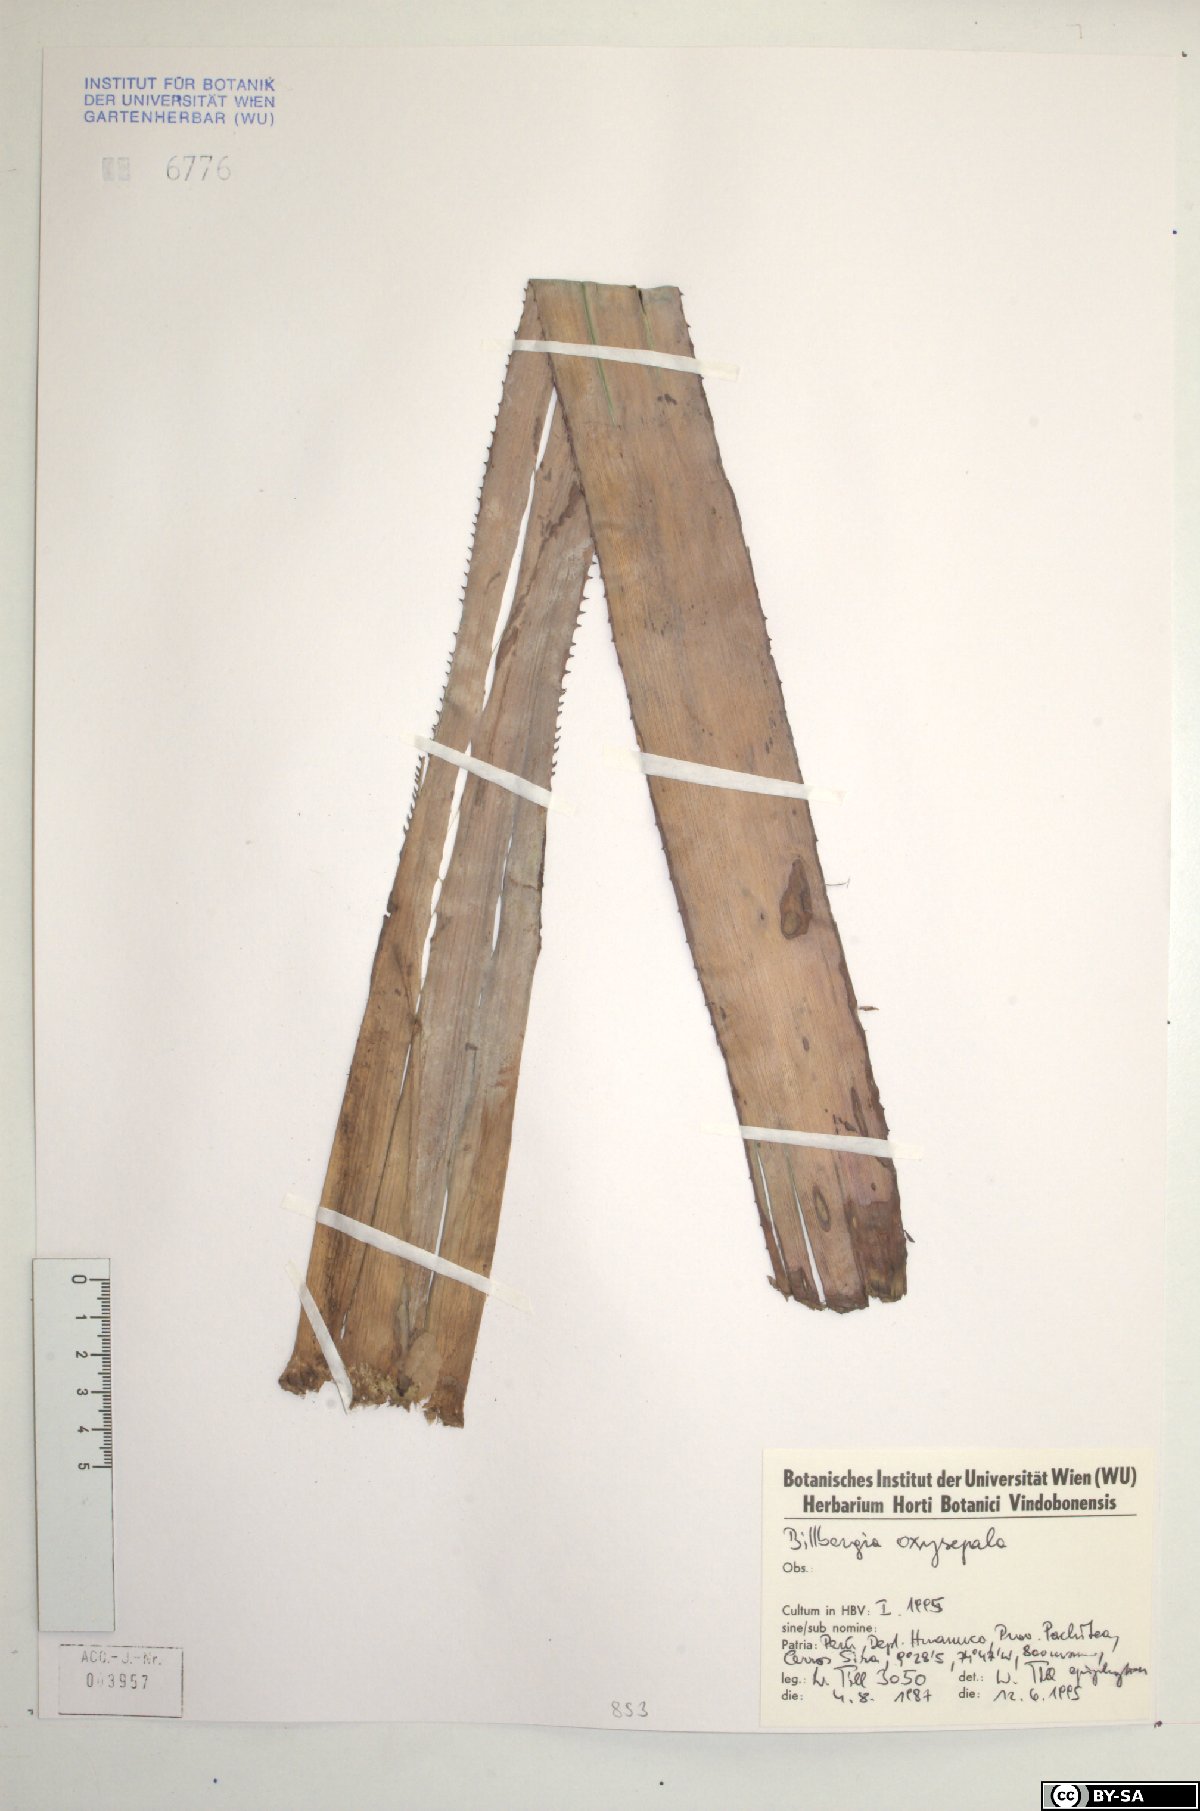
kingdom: Plantae
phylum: Tracheophyta
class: Liliopsida
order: Poales
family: Bromeliaceae
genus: Billbergia
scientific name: Billbergia oxysepala
